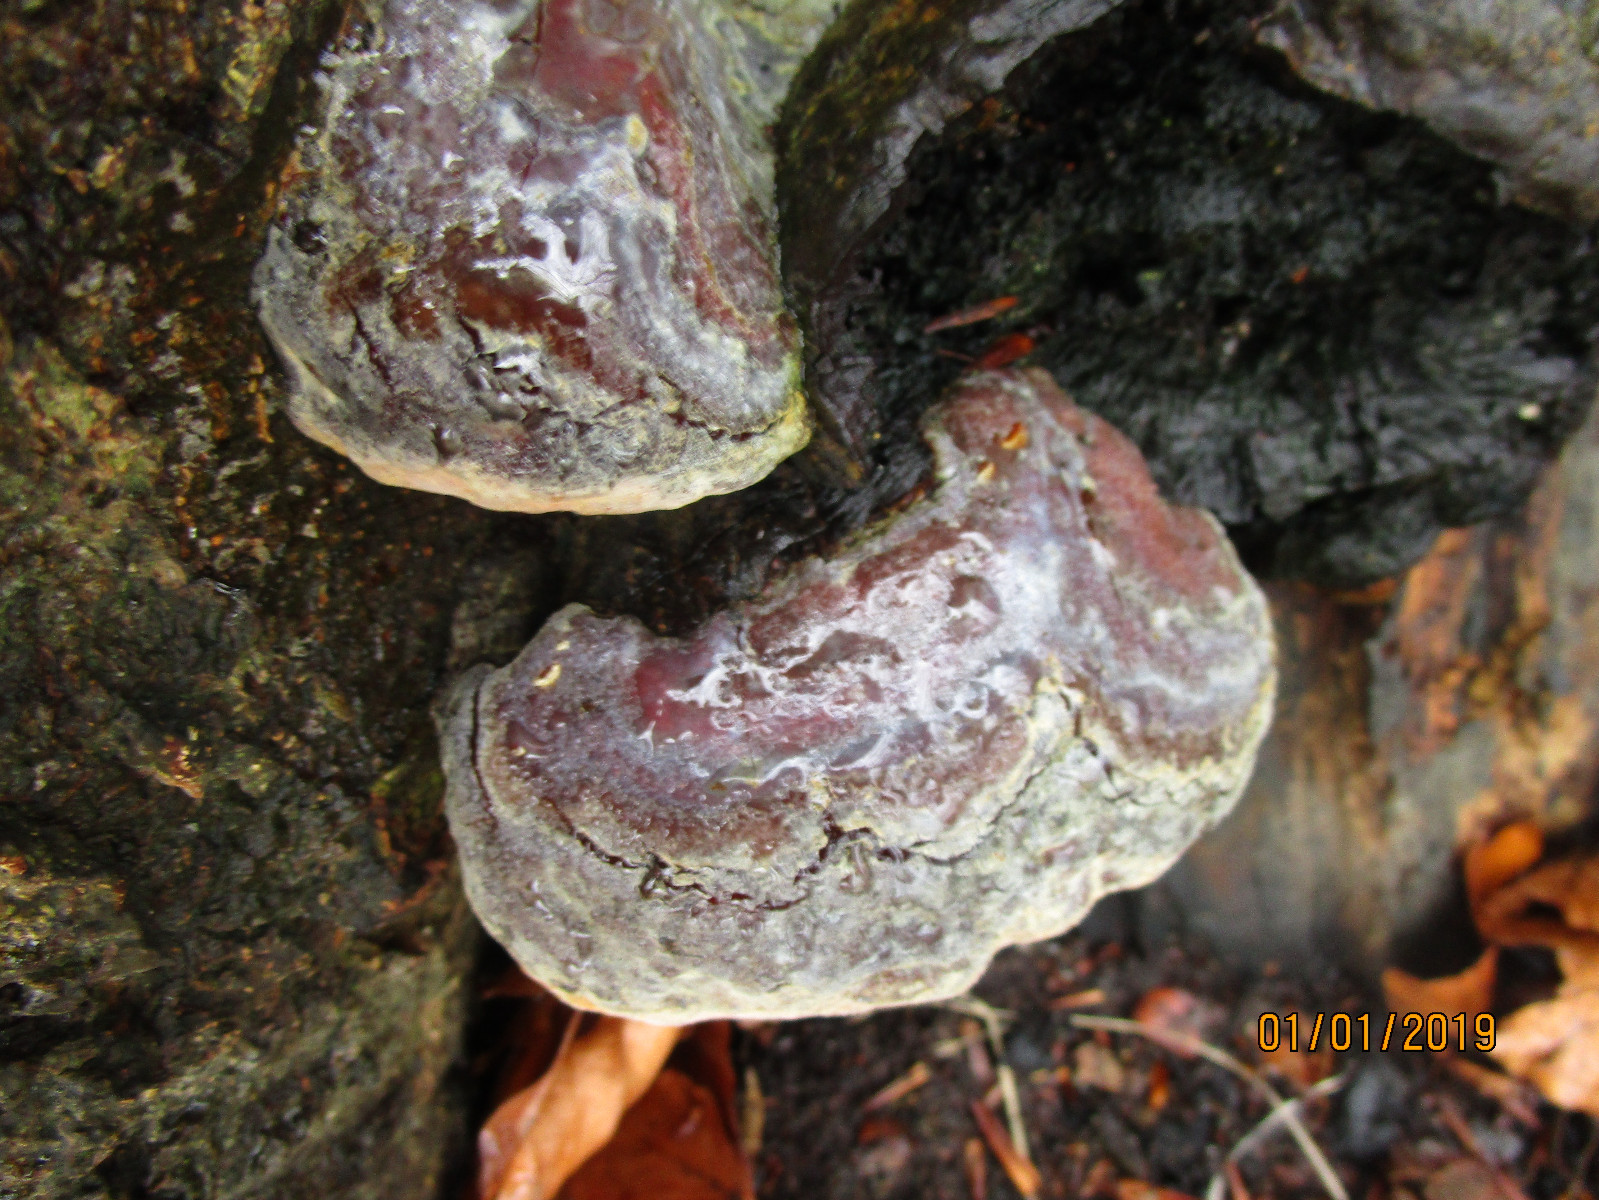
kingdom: Fungi
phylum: Basidiomycota
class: Agaricomycetes
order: Polyporales
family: Polyporaceae
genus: Ganoderma
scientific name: Ganoderma pfeifferi
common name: kobberrød lakporesvamp
